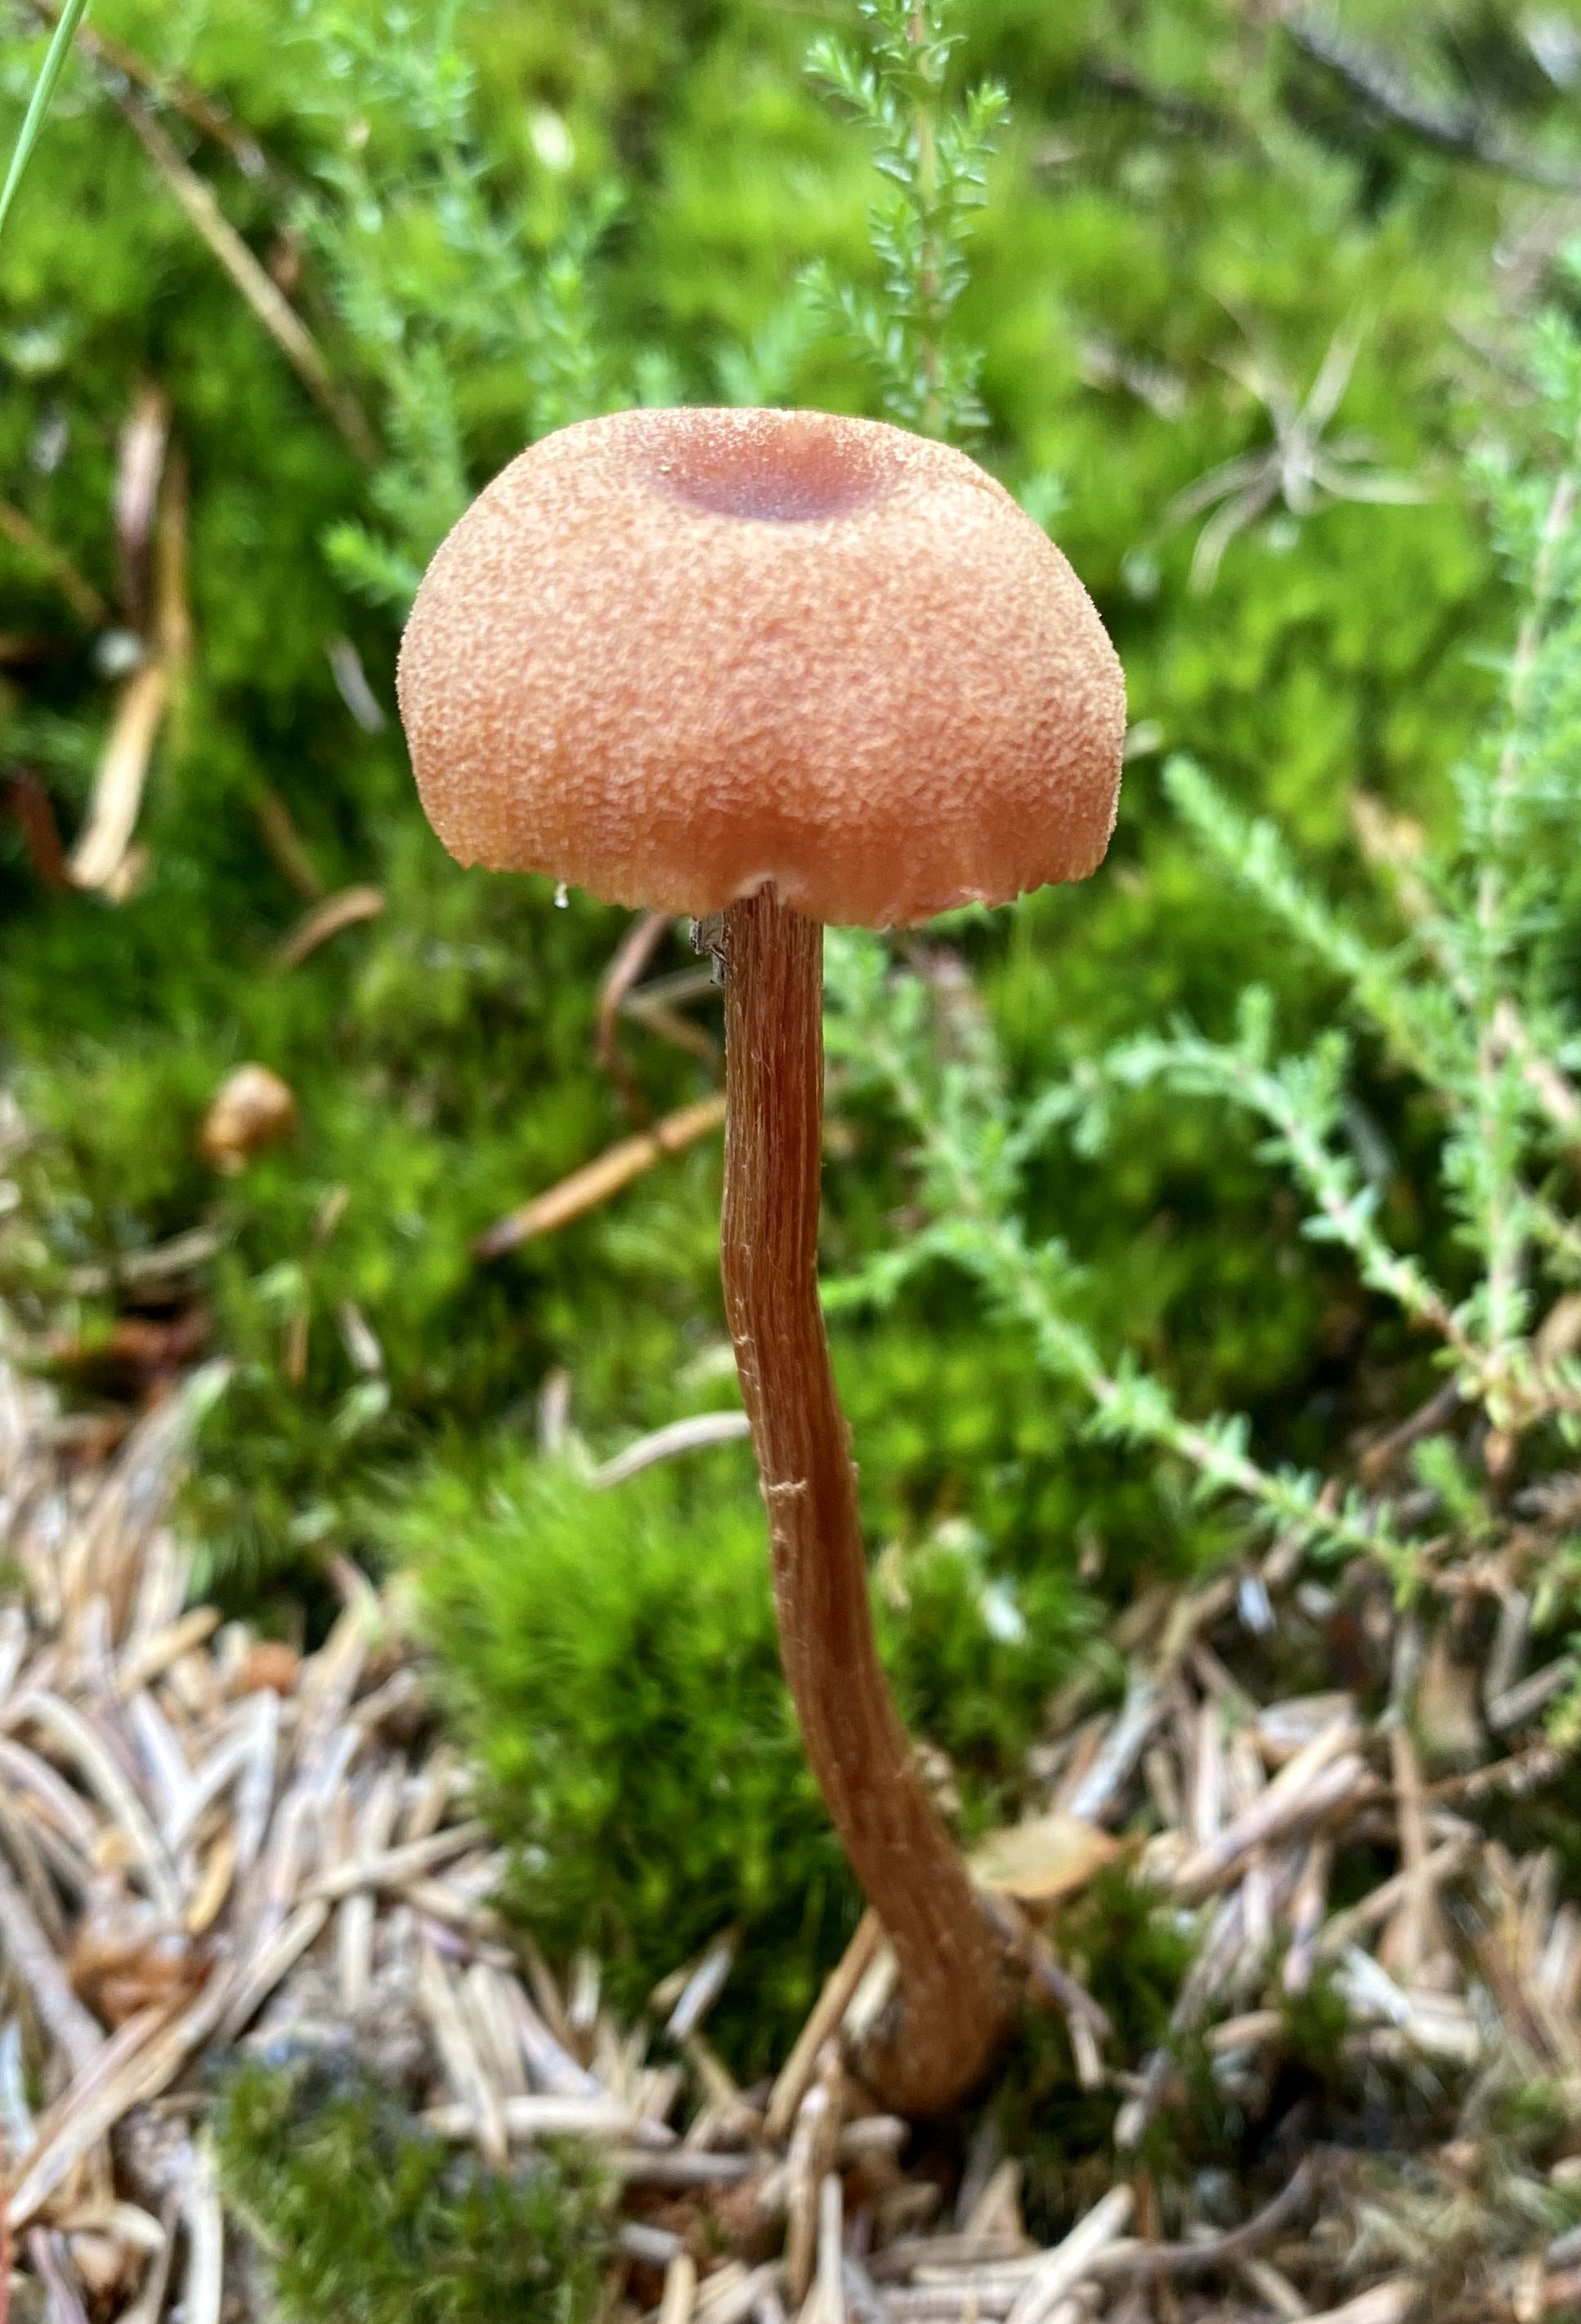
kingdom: Fungi
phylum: Basidiomycota
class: Agaricomycetes
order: Agaricales
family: Hydnangiaceae
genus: Laccaria
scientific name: Laccaria proxima
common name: stor ametysthat
